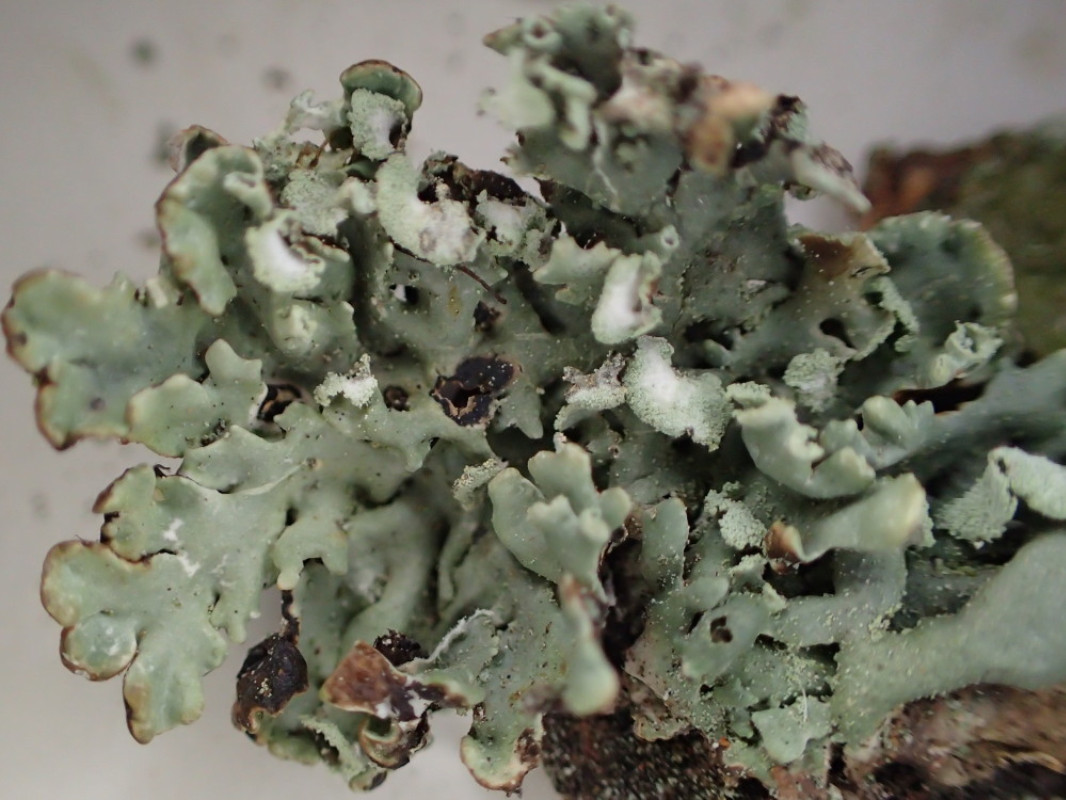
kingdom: Fungi
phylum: Ascomycota
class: Lecanoromycetes
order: Lecanorales
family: Parmeliaceae
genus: Hypogymnia
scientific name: Hypogymnia physodes
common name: almindelig kvistlav
